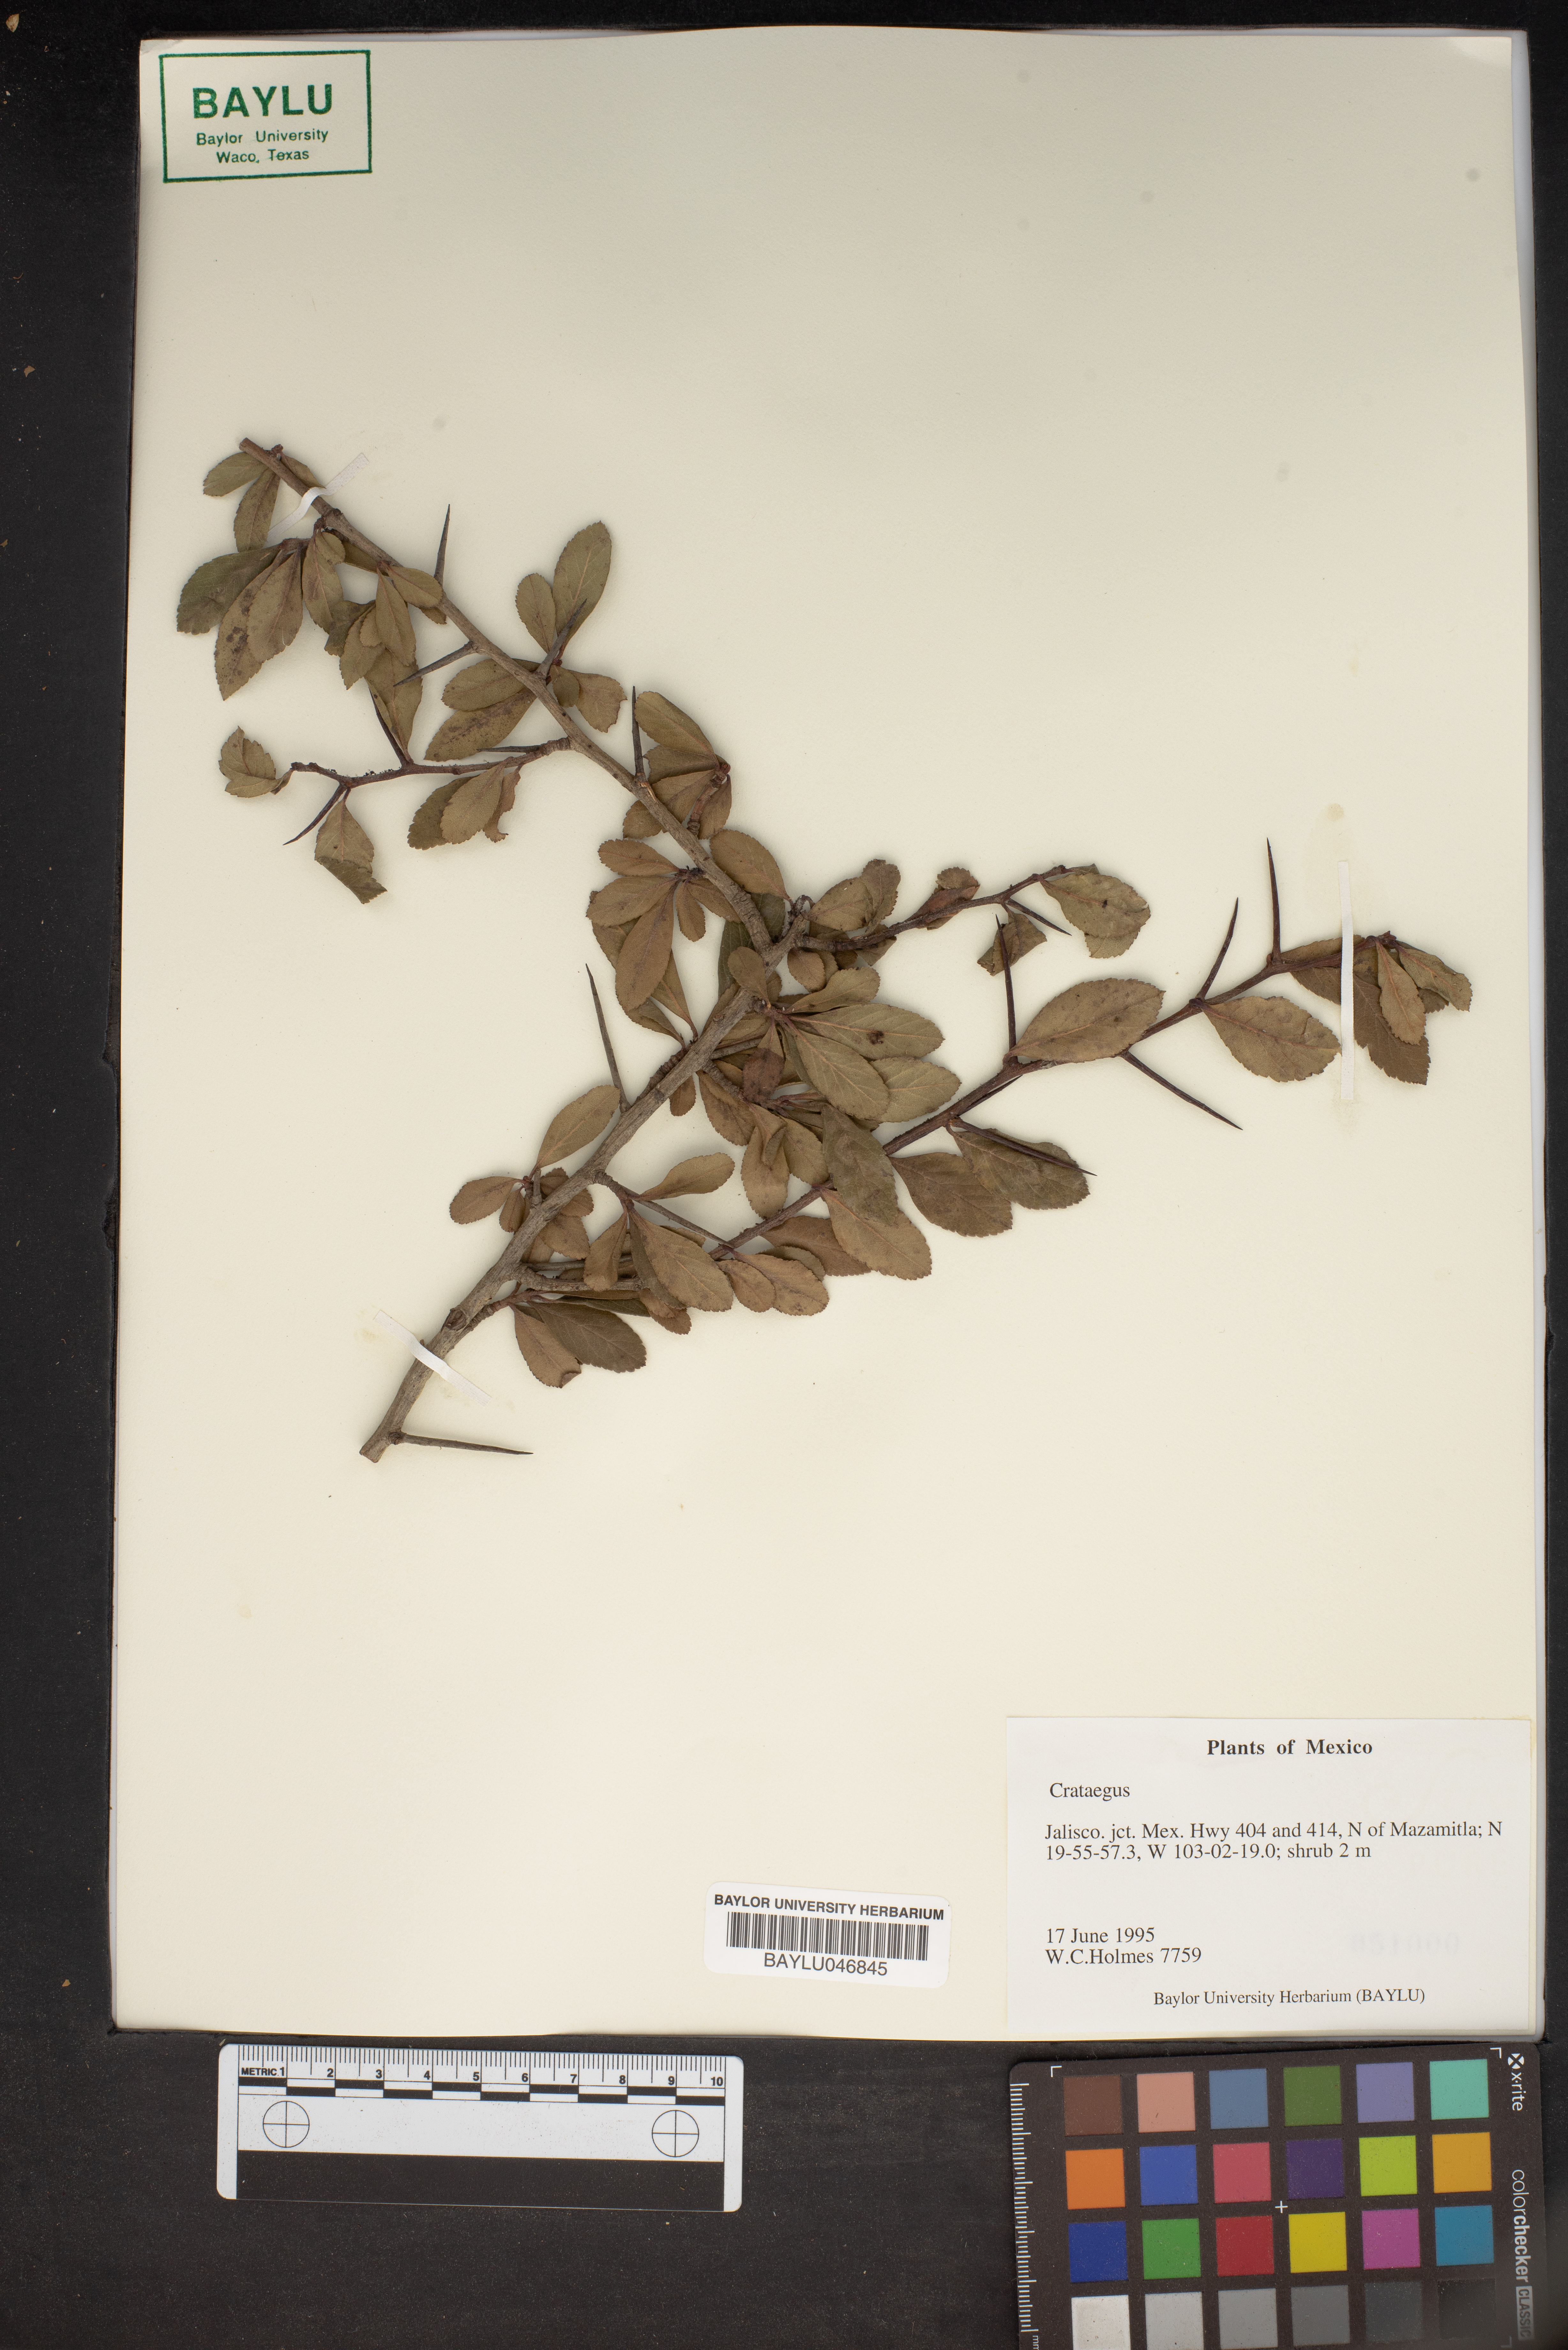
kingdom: Plantae
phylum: Tracheophyta
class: Magnoliopsida
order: Rosales
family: Rosaceae
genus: Crataegus
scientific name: Crataegus
